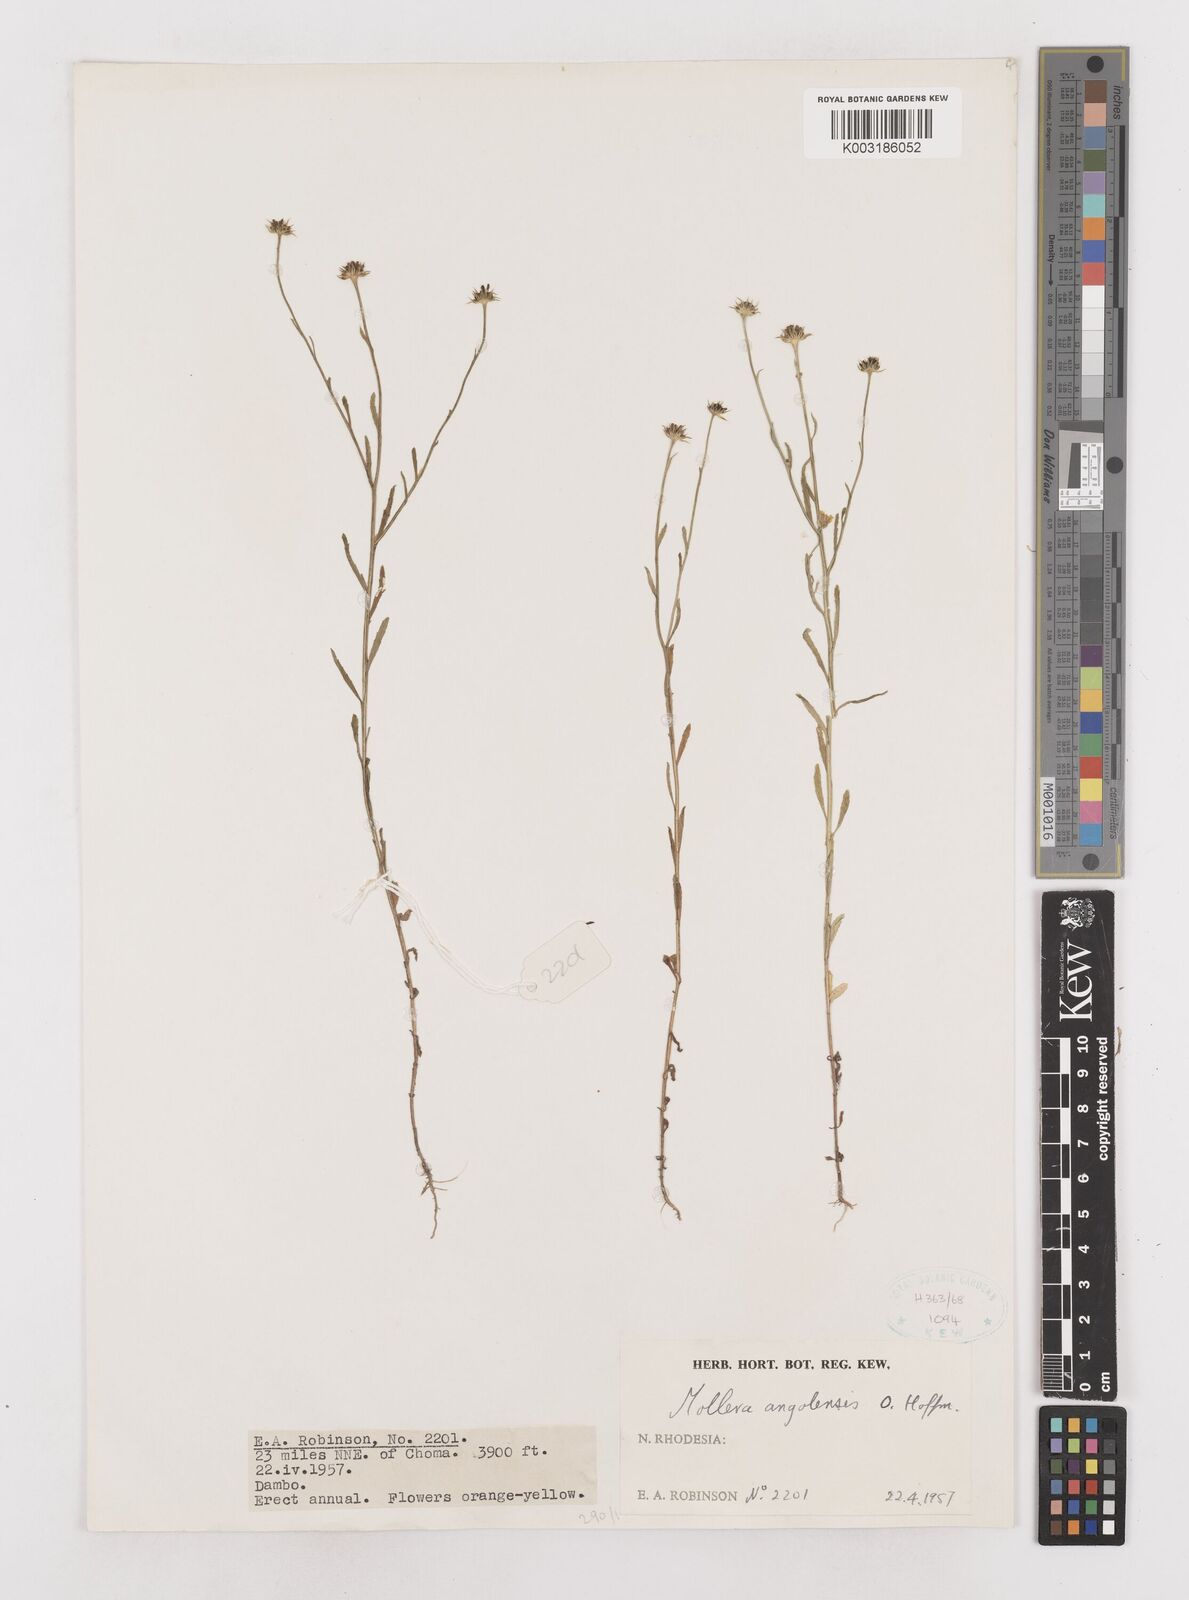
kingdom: Plantae
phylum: Tracheophyta
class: Magnoliopsida
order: Asterales
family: Asteraceae
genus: Calostephane
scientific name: Calostephane angolensis
